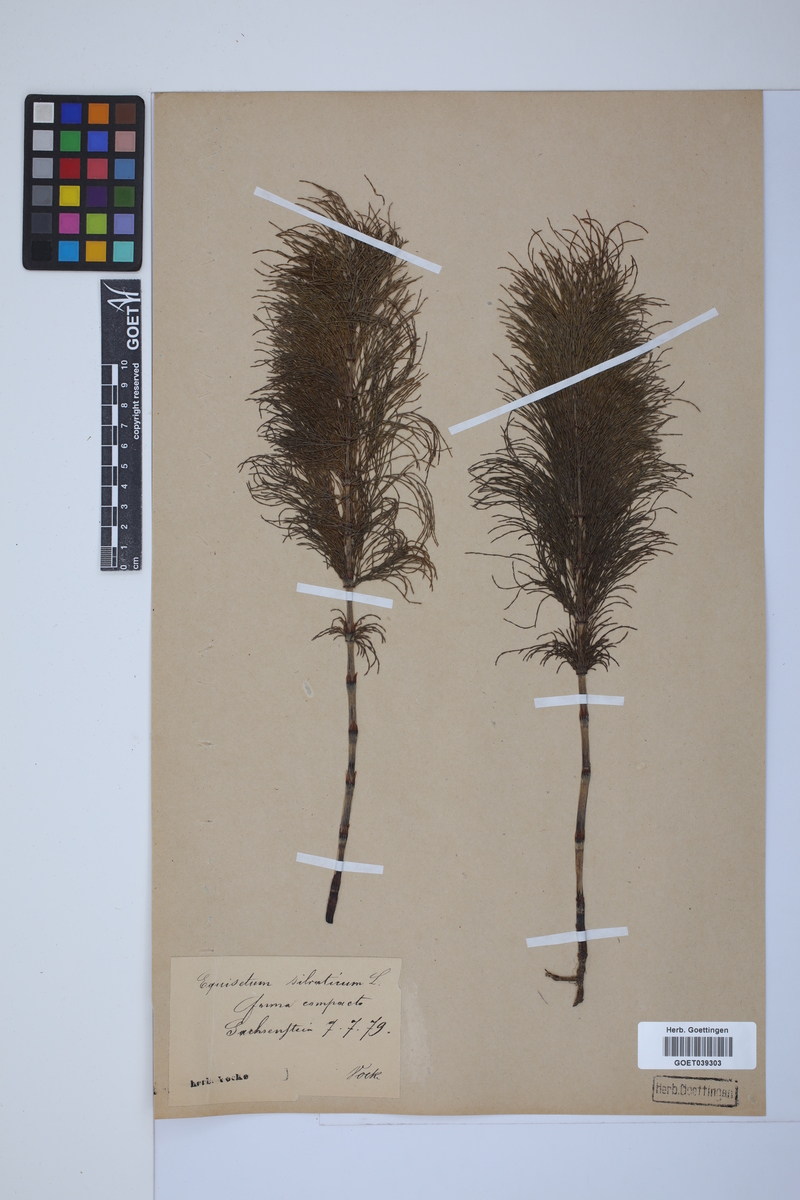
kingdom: Plantae
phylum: Tracheophyta
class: Polypodiopsida
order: Equisetales
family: Equisetaceae
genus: Equisetum
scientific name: Equisetum sylvaticum
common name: Wood horsetail
